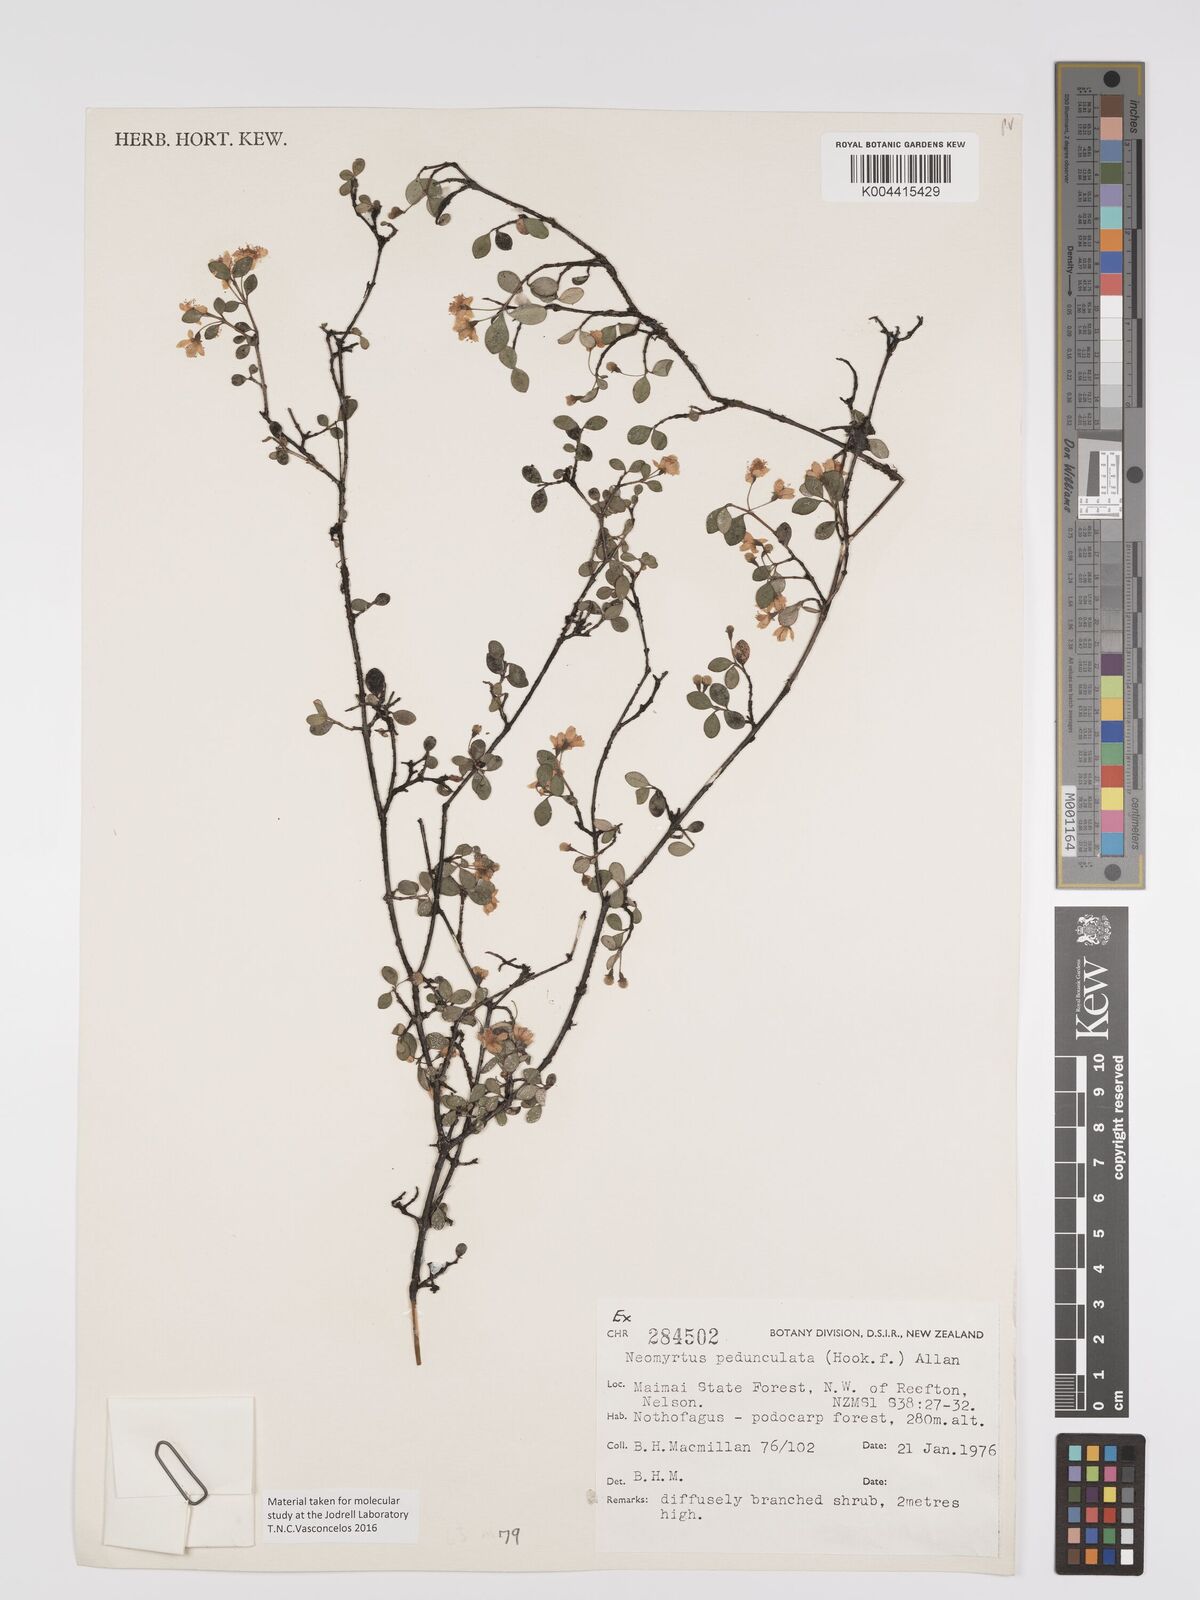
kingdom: Plantae
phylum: Tracheophyta
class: Magnoliopsida
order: Myrtales
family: Myrtaceae
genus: Neomyrtus
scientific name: Neomyrtus pedunculata
